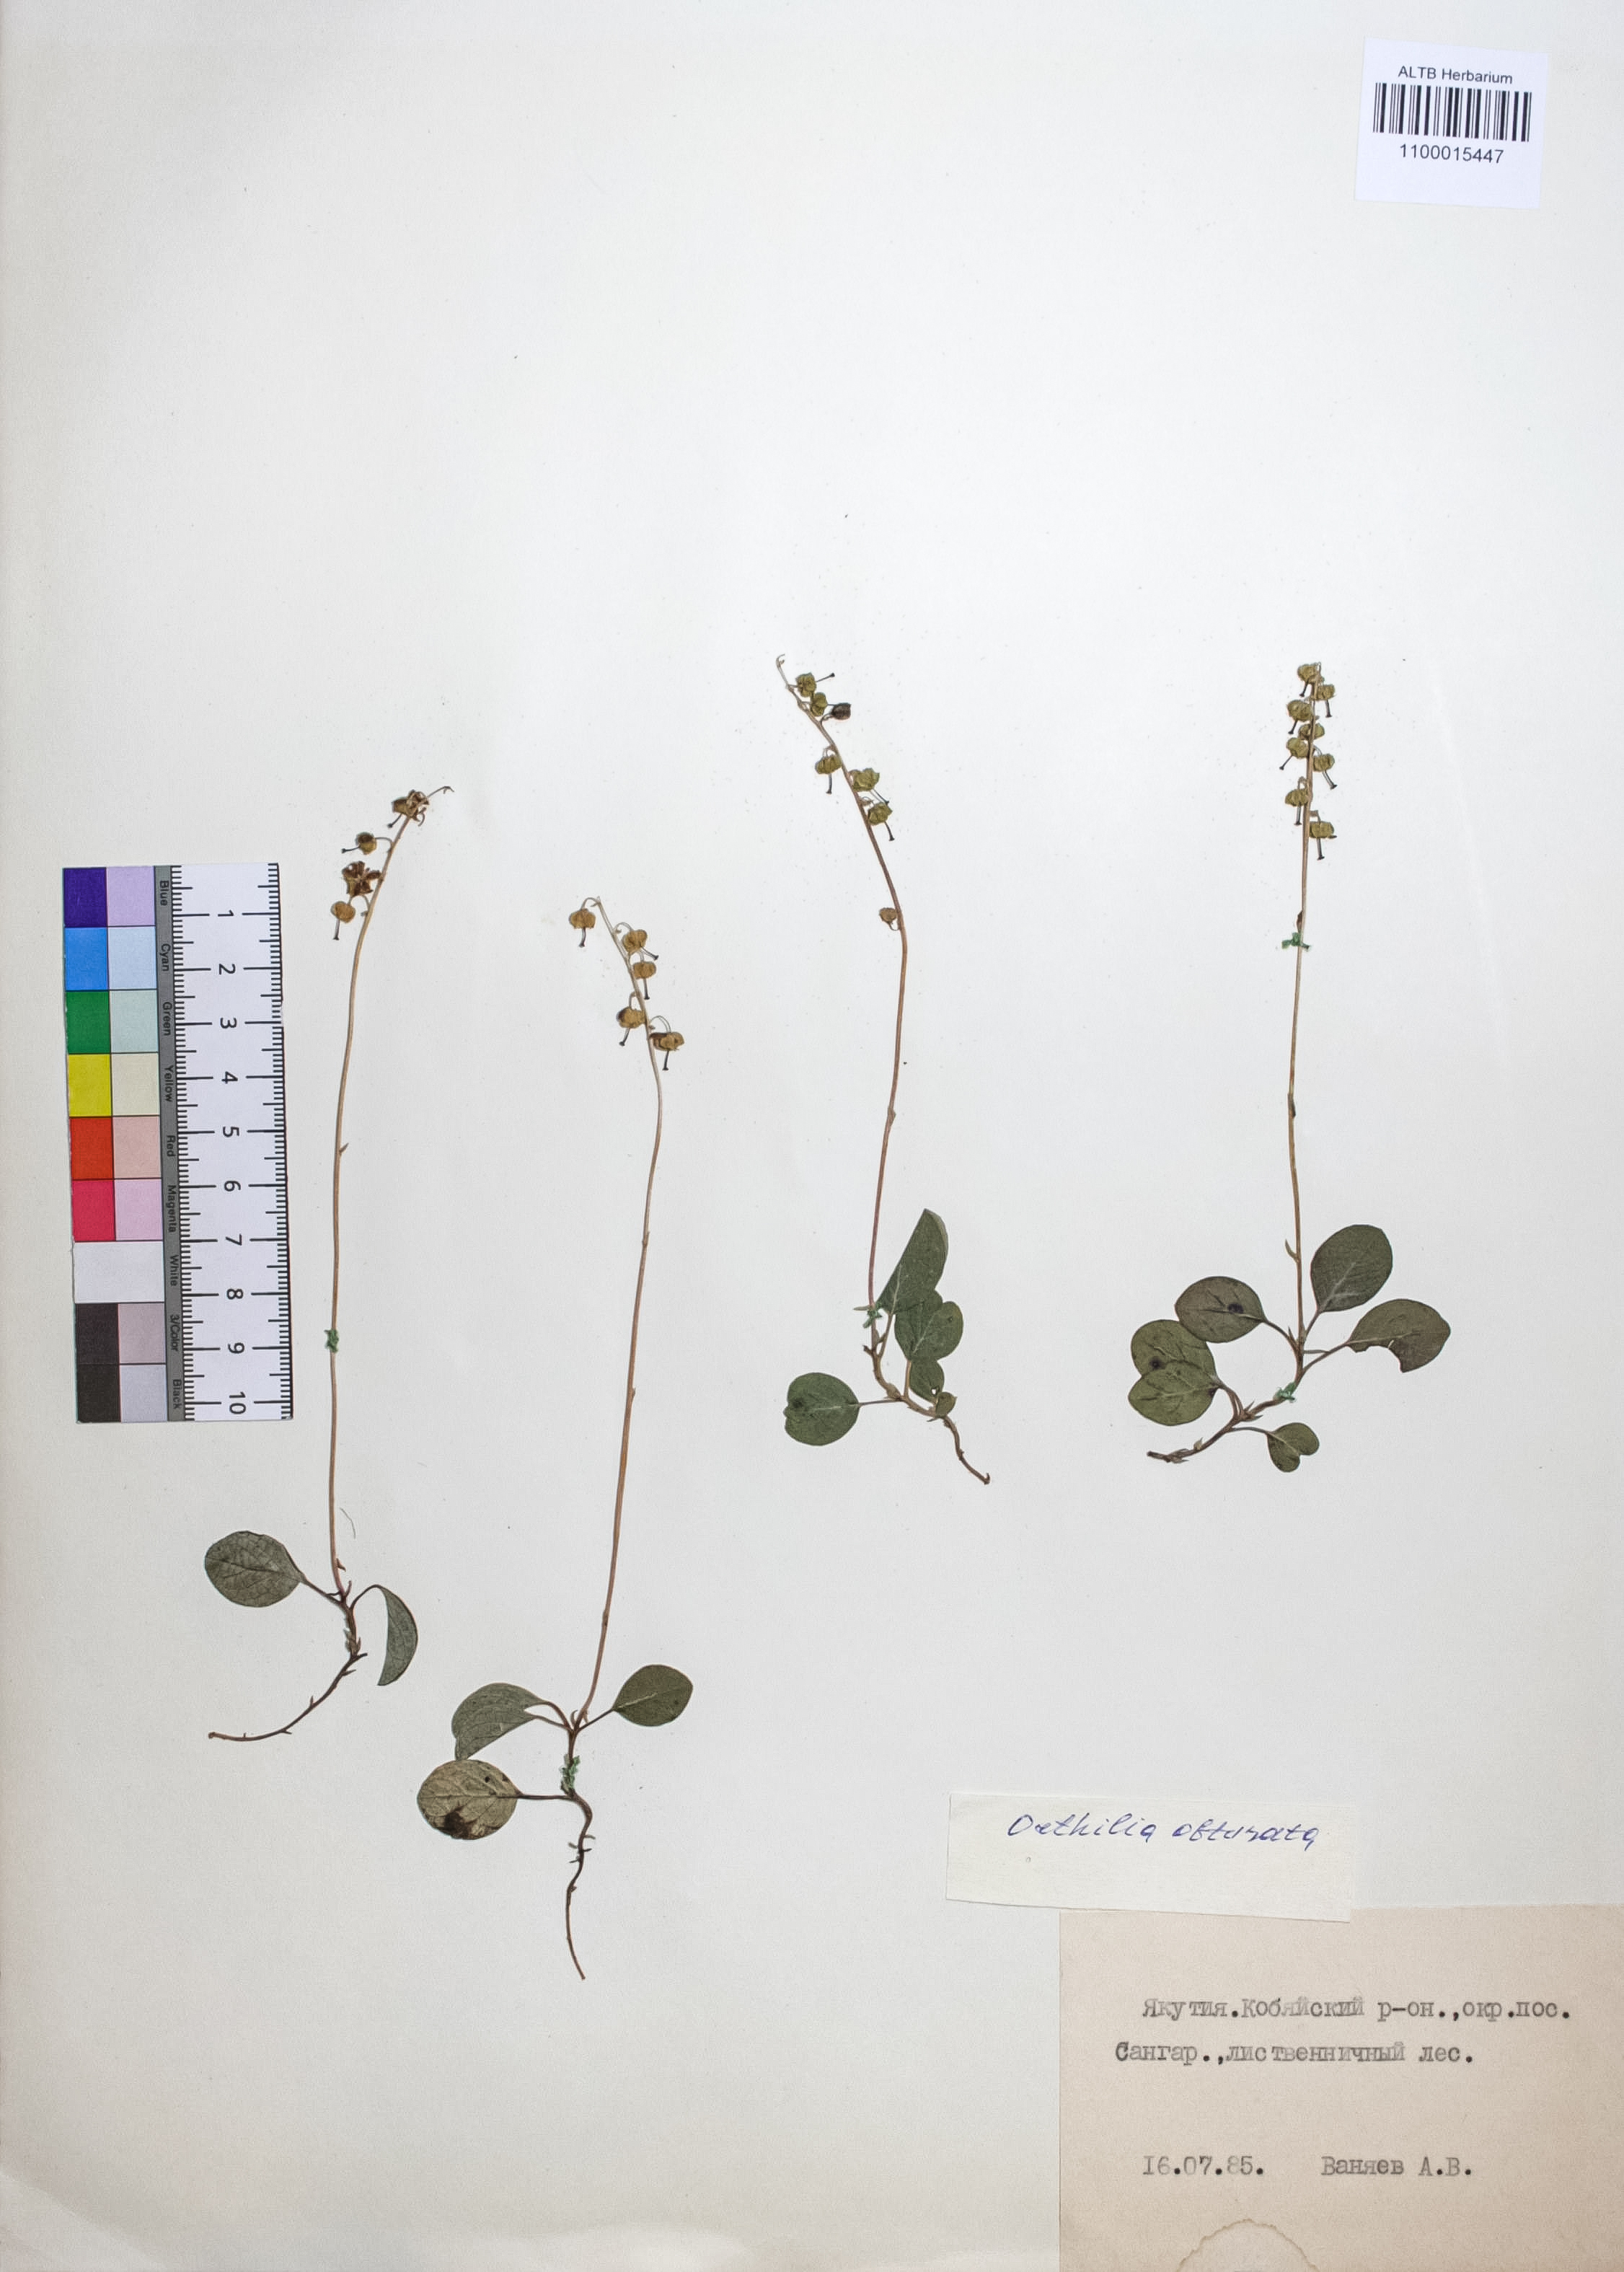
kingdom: Plantae
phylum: Tracheophyta
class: Magnoliopsida
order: Ericales
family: Ericaceae
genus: Orthilia
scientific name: Orthilia secunda
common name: One-sided orthilia
